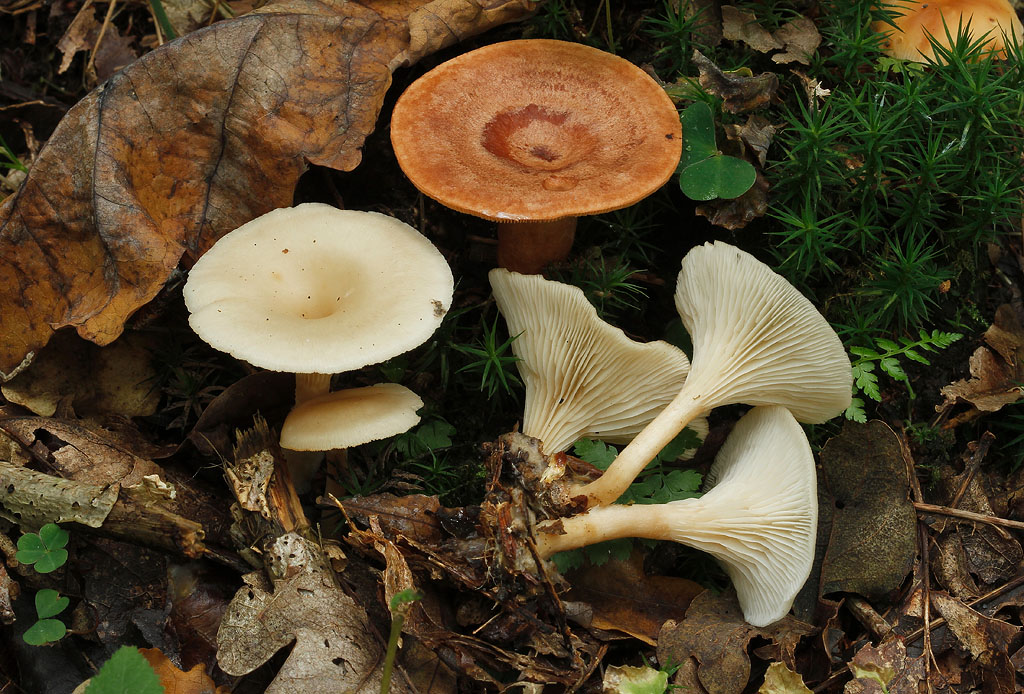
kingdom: Fungi
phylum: Basidiomycota
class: Agaricomycetes
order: Agaricales
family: Tricholomataceae
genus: Clitocybe
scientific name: Clitocybe phaeophthalma
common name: stinkende tragthat
